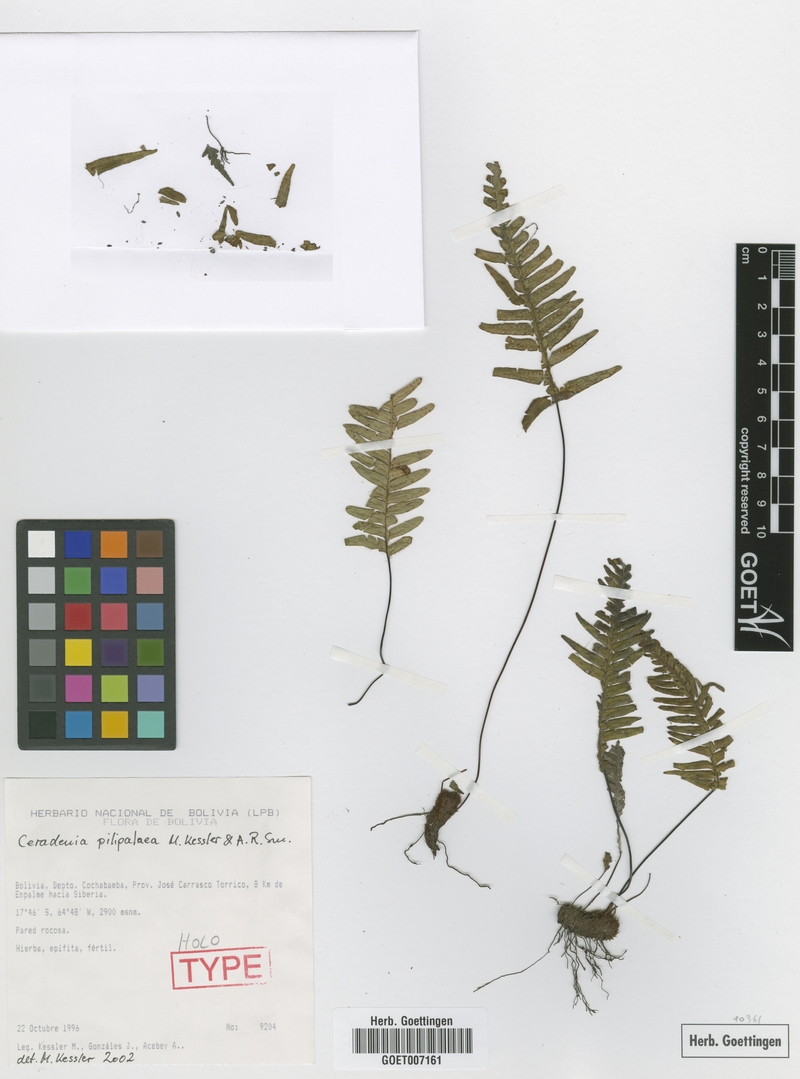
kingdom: Plantae
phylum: Tracheophyta
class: Polypodiopsida
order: Polypodiales
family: Polypodiaceae
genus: Ceradenia
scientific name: Ceradenia pilipalaea
